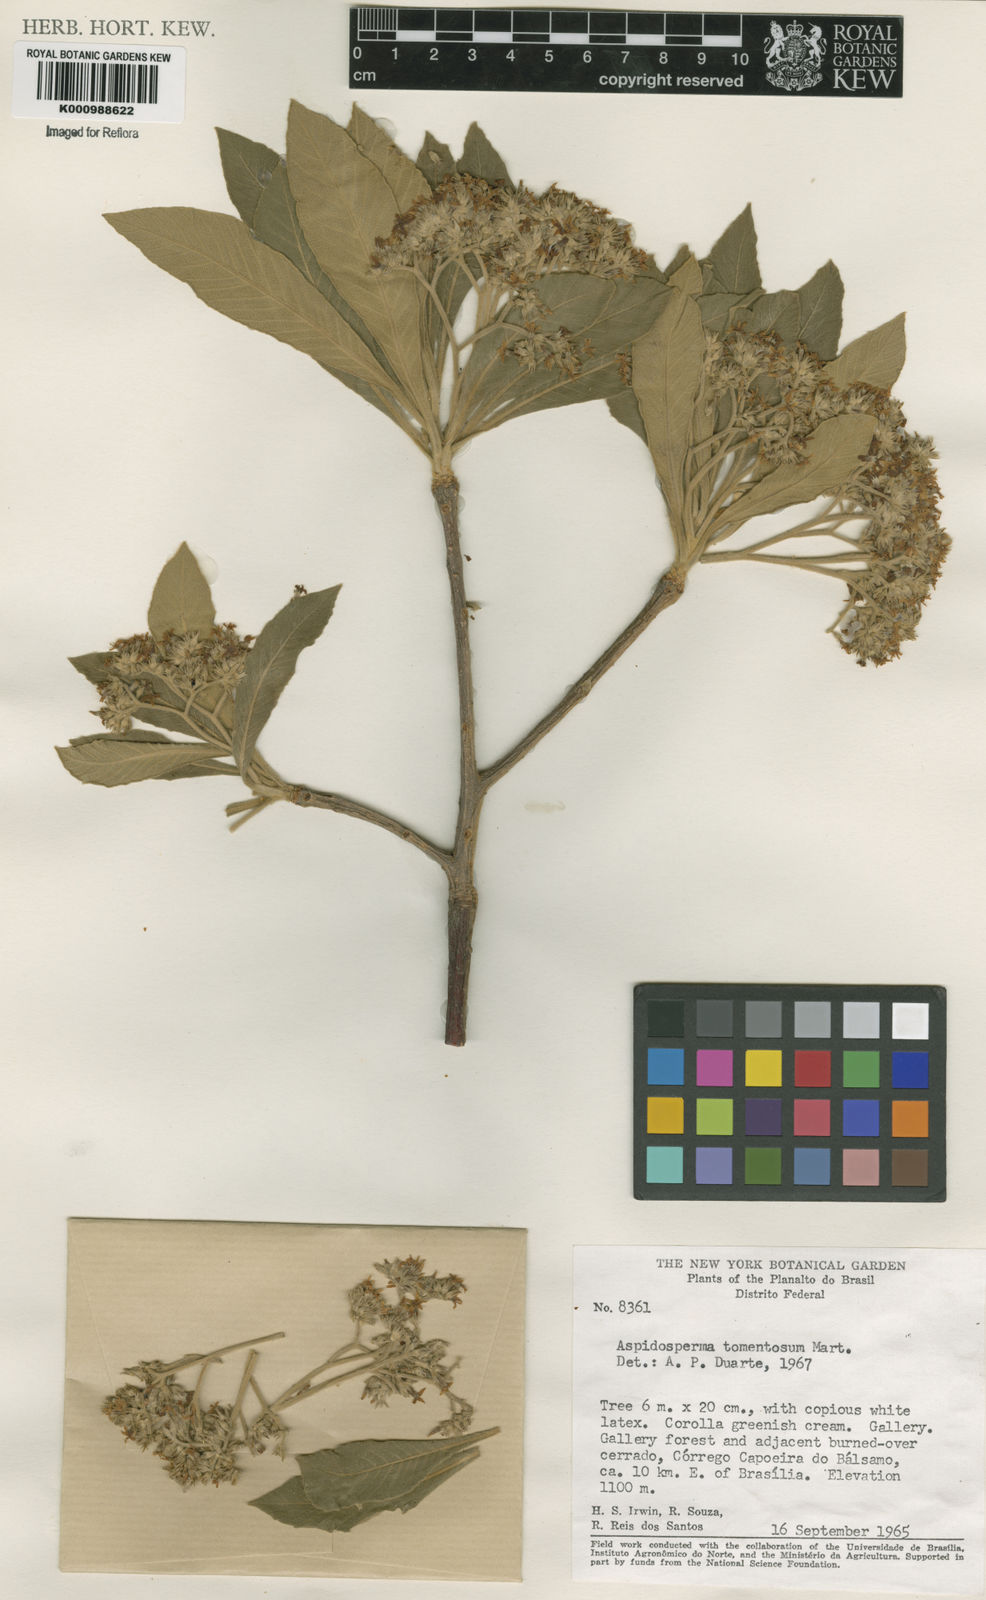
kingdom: Plantae
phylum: Tracheophyta
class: Magnoliopsida
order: Gentianales
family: Apocynaceae
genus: Aspidosperma
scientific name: Aspidosperma tomentosum
